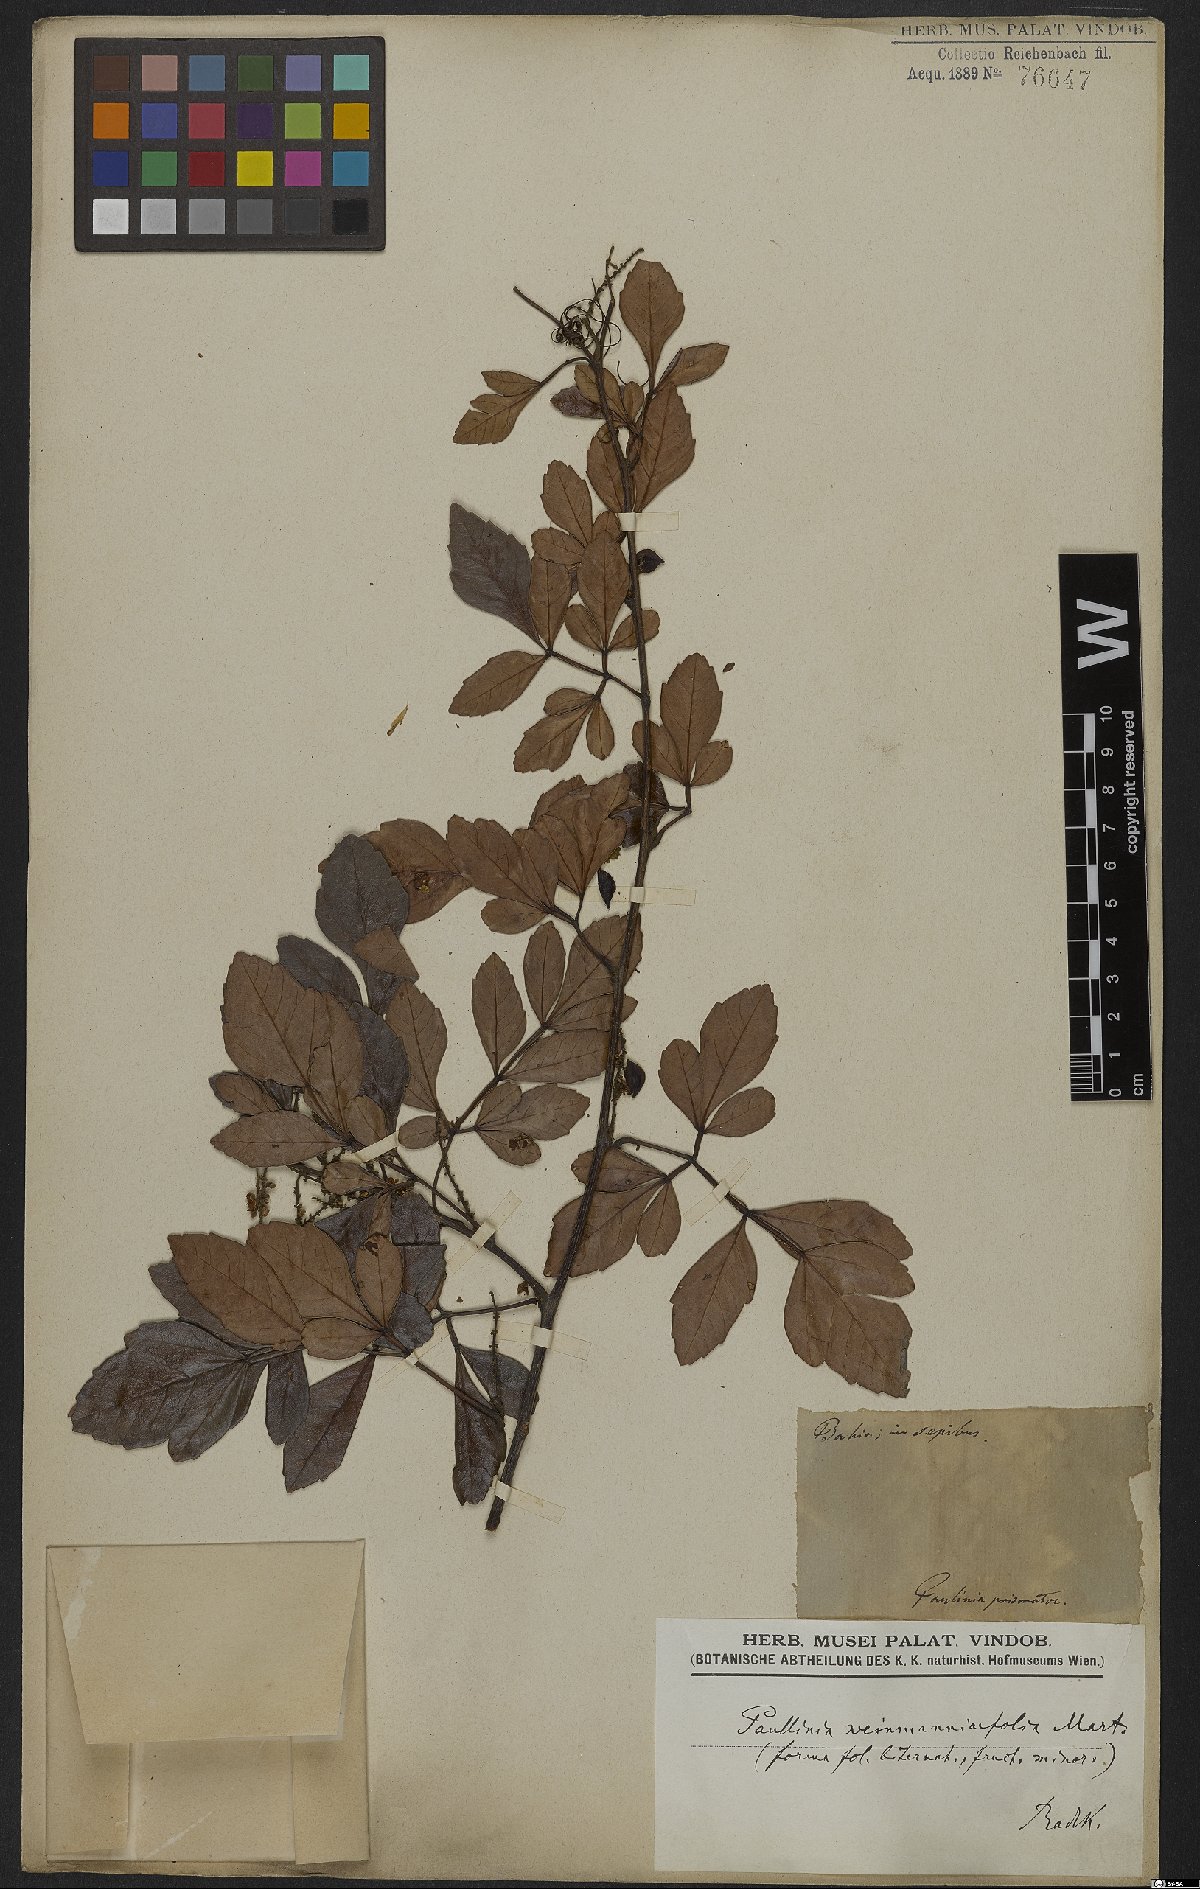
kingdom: Plantae
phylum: Tracheophyta
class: Magnoliopsida
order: Sapindales
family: Sapindaceae
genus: Paullinia
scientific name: Paullinia weinmanniifolia
